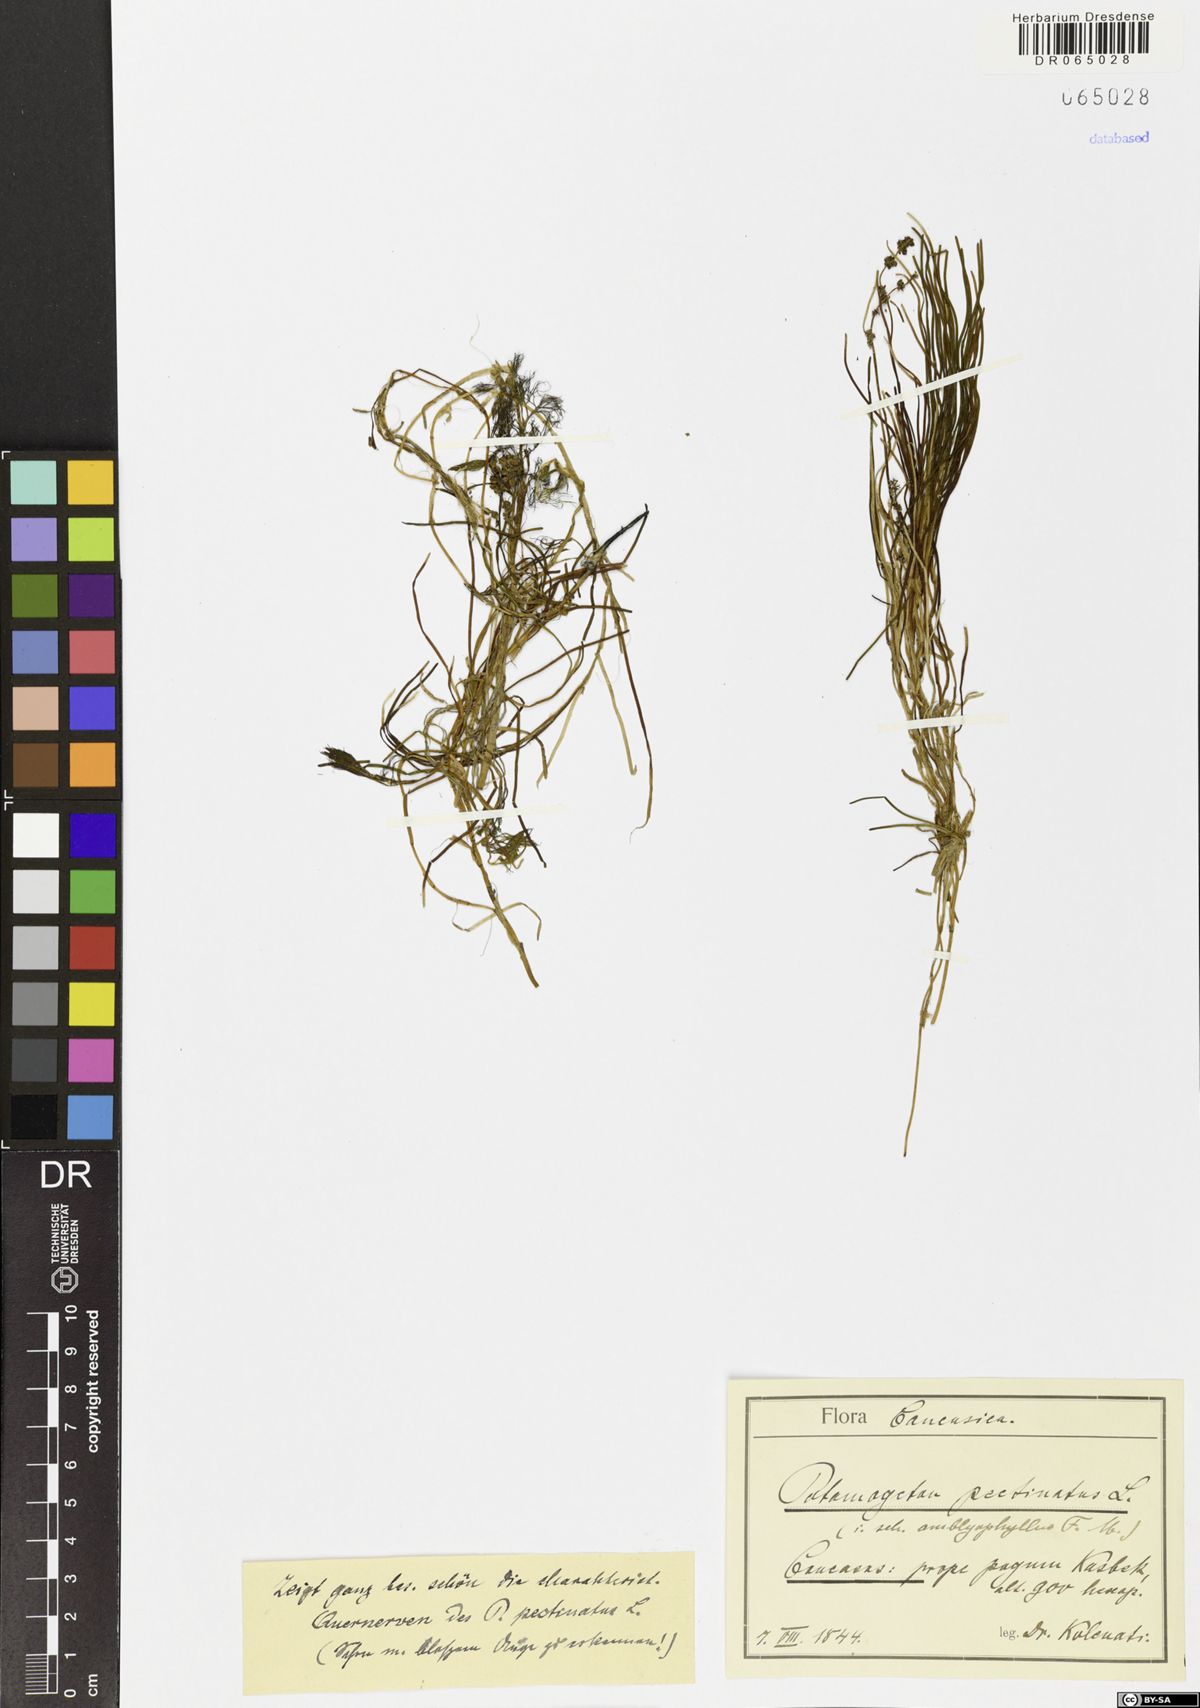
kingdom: Plantae
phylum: Tracheophyta
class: Liliopsida
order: Alismatales
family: Potamogetonaceae
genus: Stuckenia
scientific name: Stuckenia pectinata
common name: Sago pondweed
